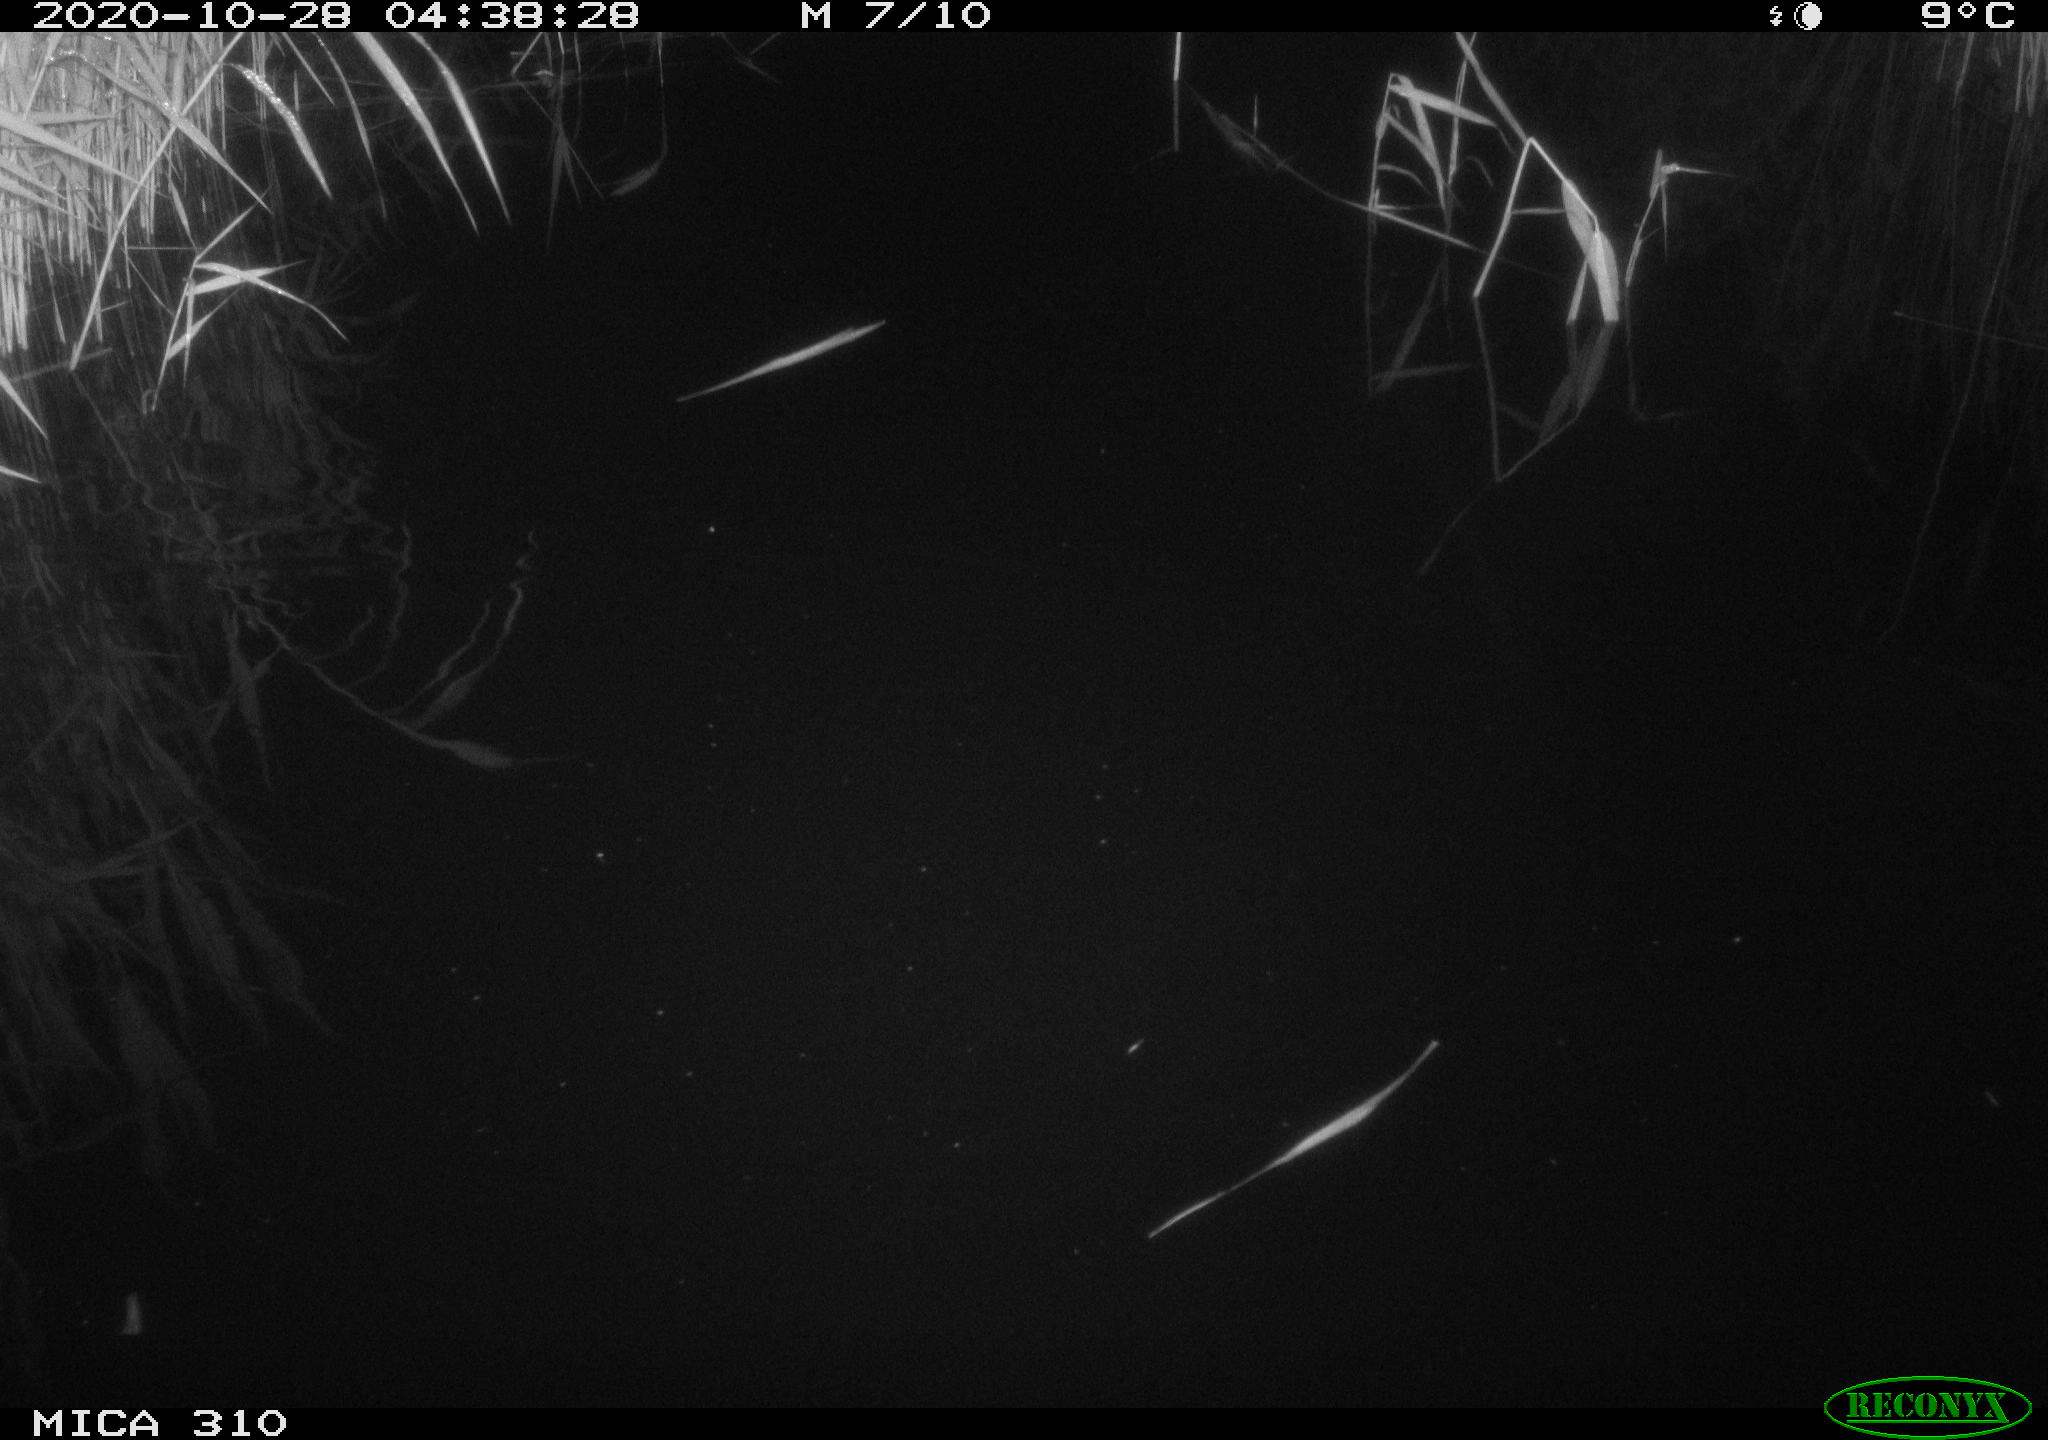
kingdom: Animalia
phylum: Chordata
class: Mammalia
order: Rodentia
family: Muridae
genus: Rattus
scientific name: Rattus norvegicus
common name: Brown rat
